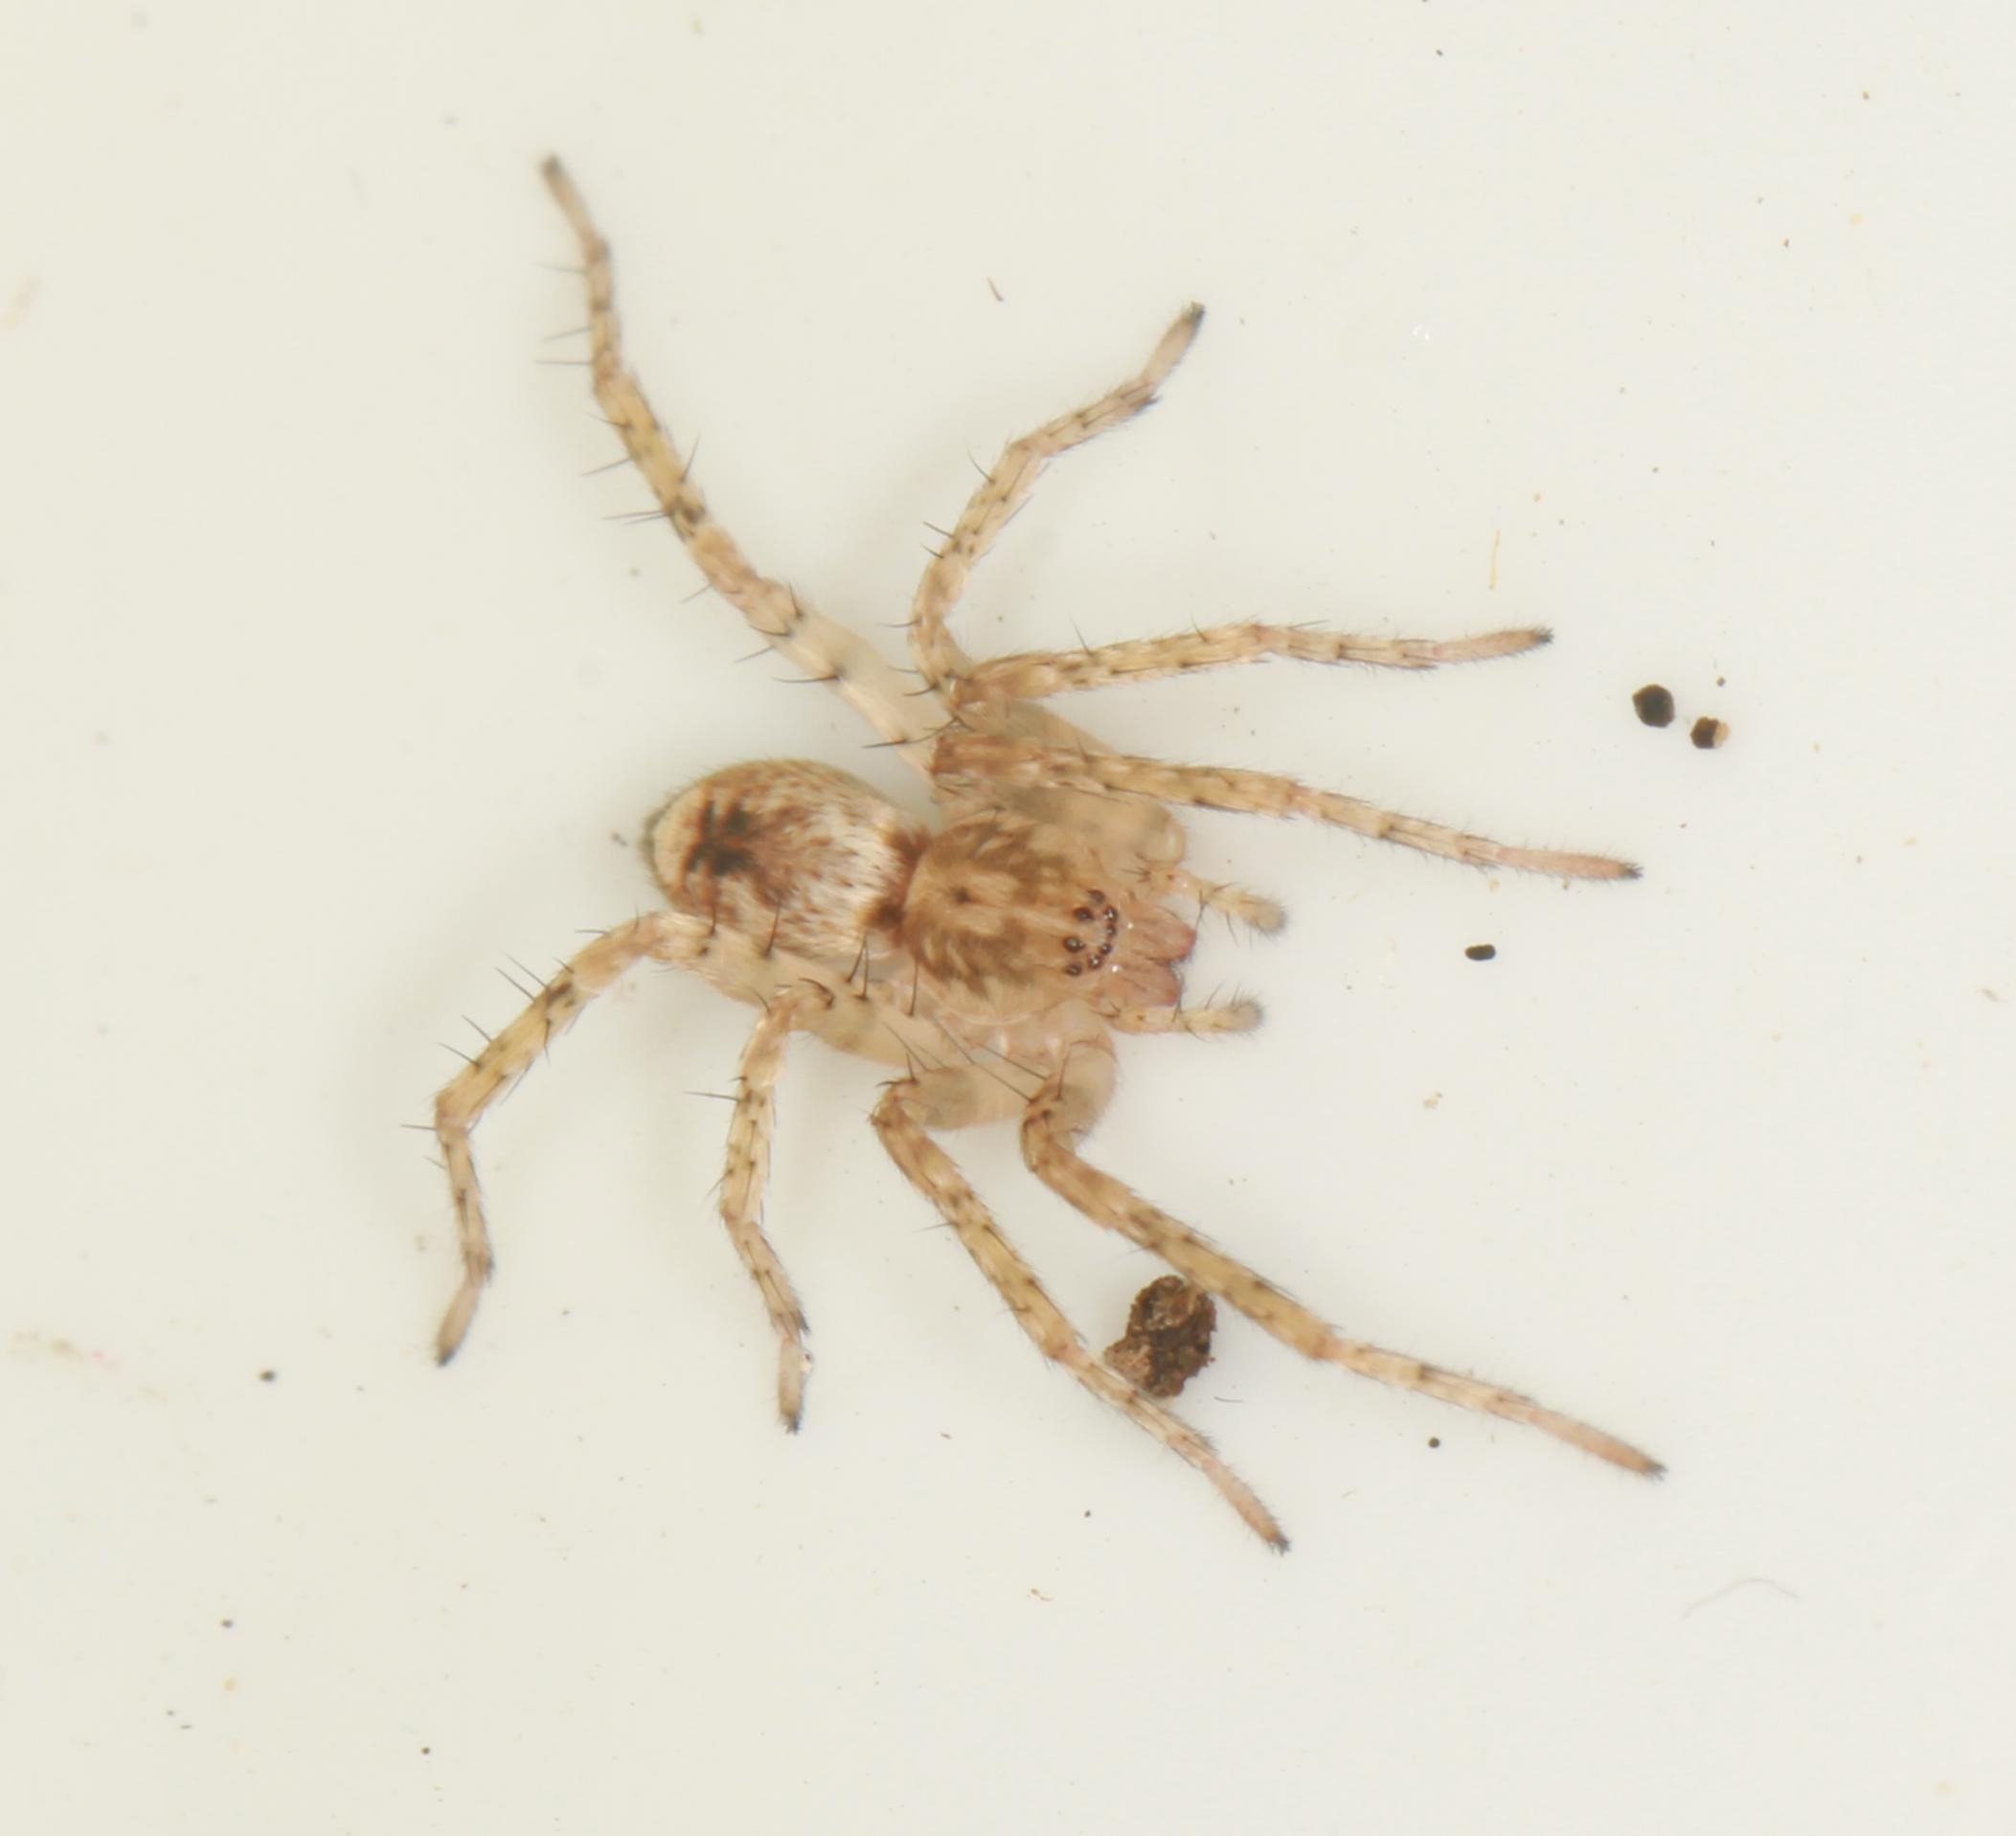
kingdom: Animalia
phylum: Arthropoda
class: Arachnida
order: Araneae
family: Anyphaenidae
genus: Anyphaena
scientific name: Anyphaena accentuata
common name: Summeedderkop
